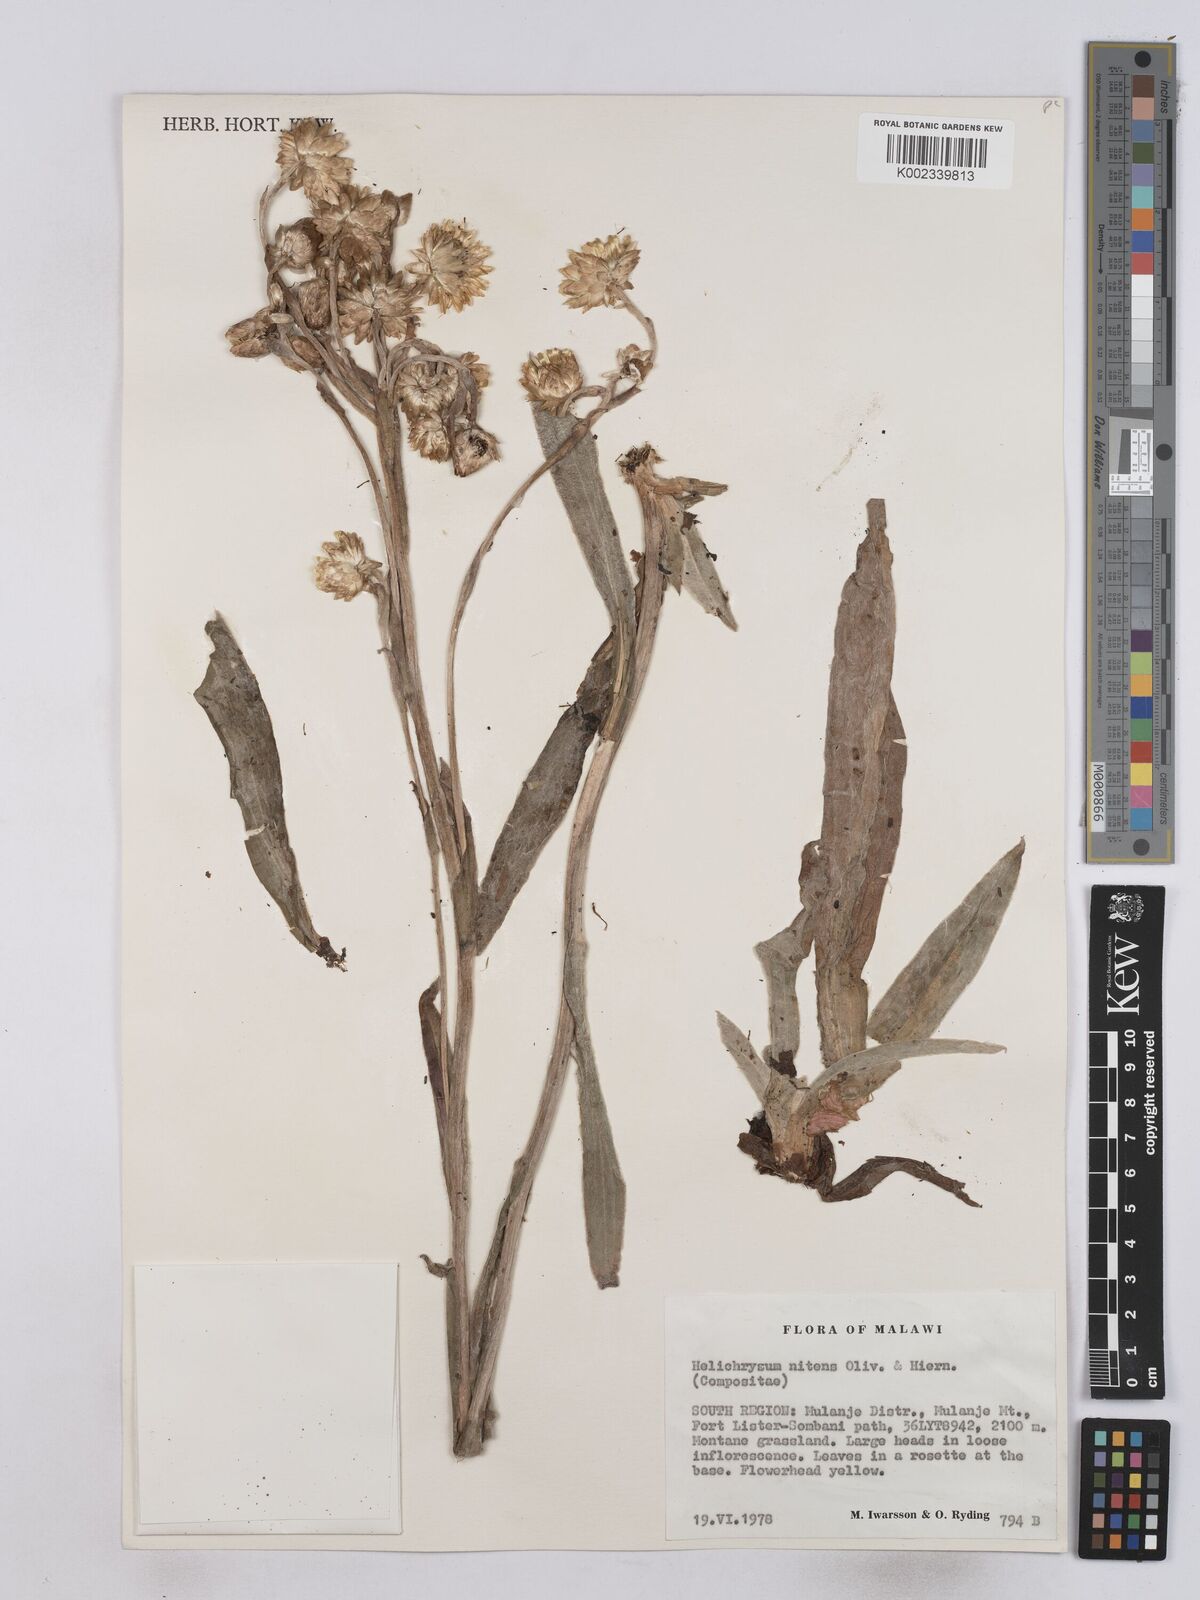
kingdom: Plantae
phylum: Tracheophyta
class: Magnoliopsida
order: Asterales
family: Asteraceae
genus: Helichrysum
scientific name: Helichrysum nitens
